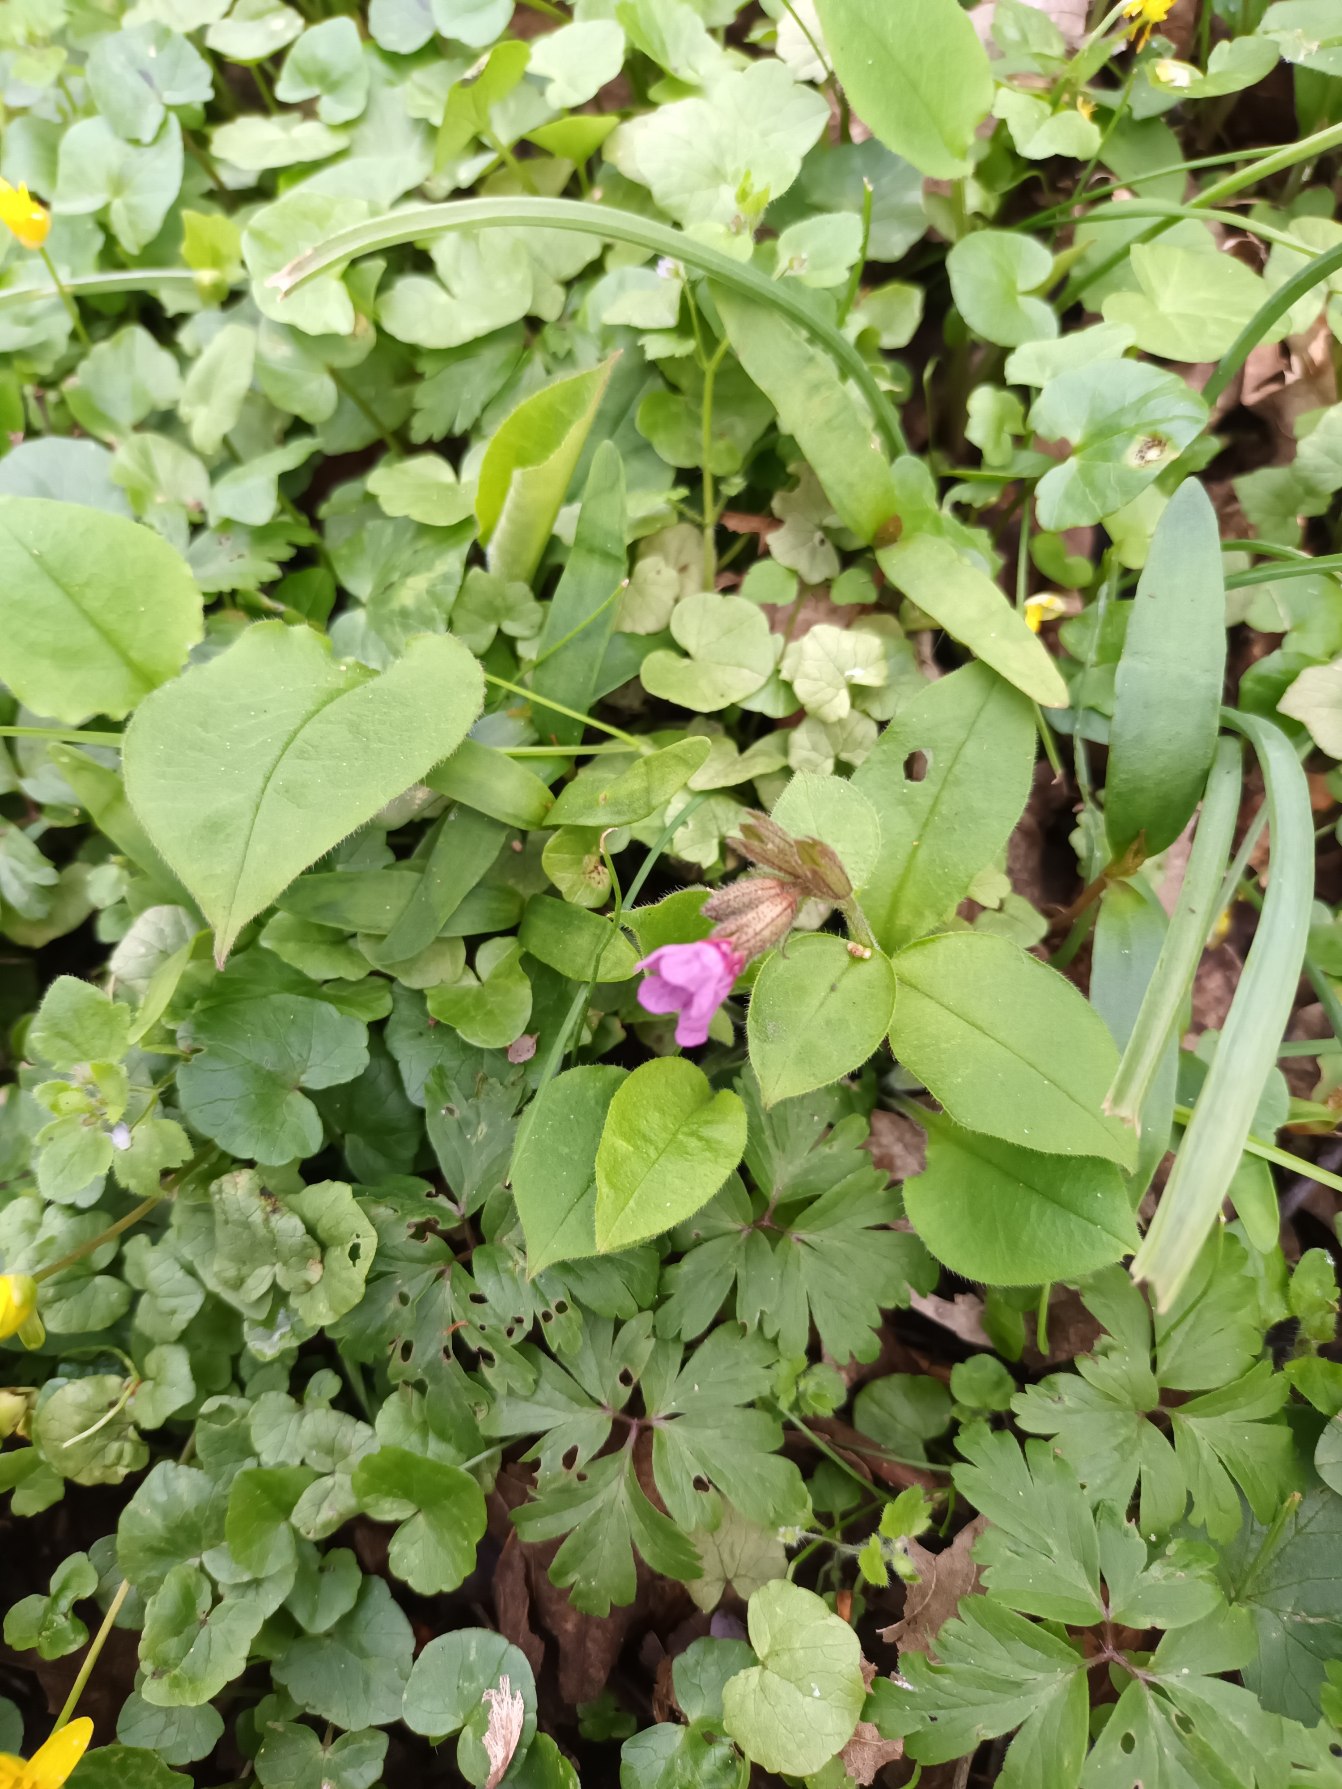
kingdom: Plantae
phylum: Tracheophyta
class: Magnoliopsida
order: Boraginales
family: Boraginaceae
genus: Pulmonaria
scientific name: Pulmonaria obscura
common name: Almindelig lungeurt
